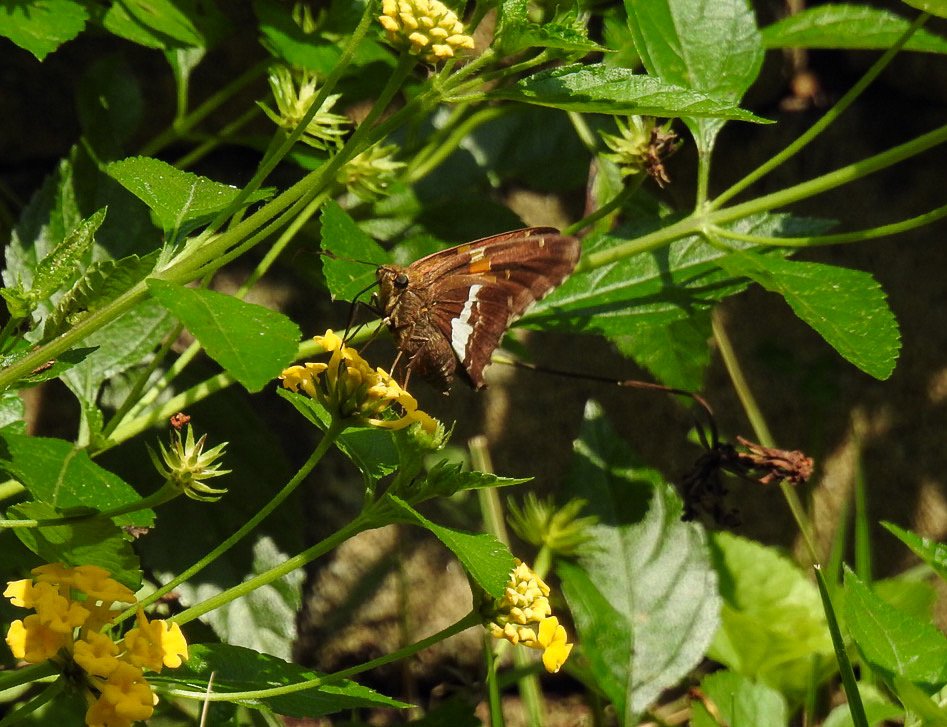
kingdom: Animalia
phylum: Arthropoda
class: Insecta
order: Lepidoptera
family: Hesperiidae
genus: Epargyreus
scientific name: Epargyreus clarus
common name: Silver-spotted Skipper
